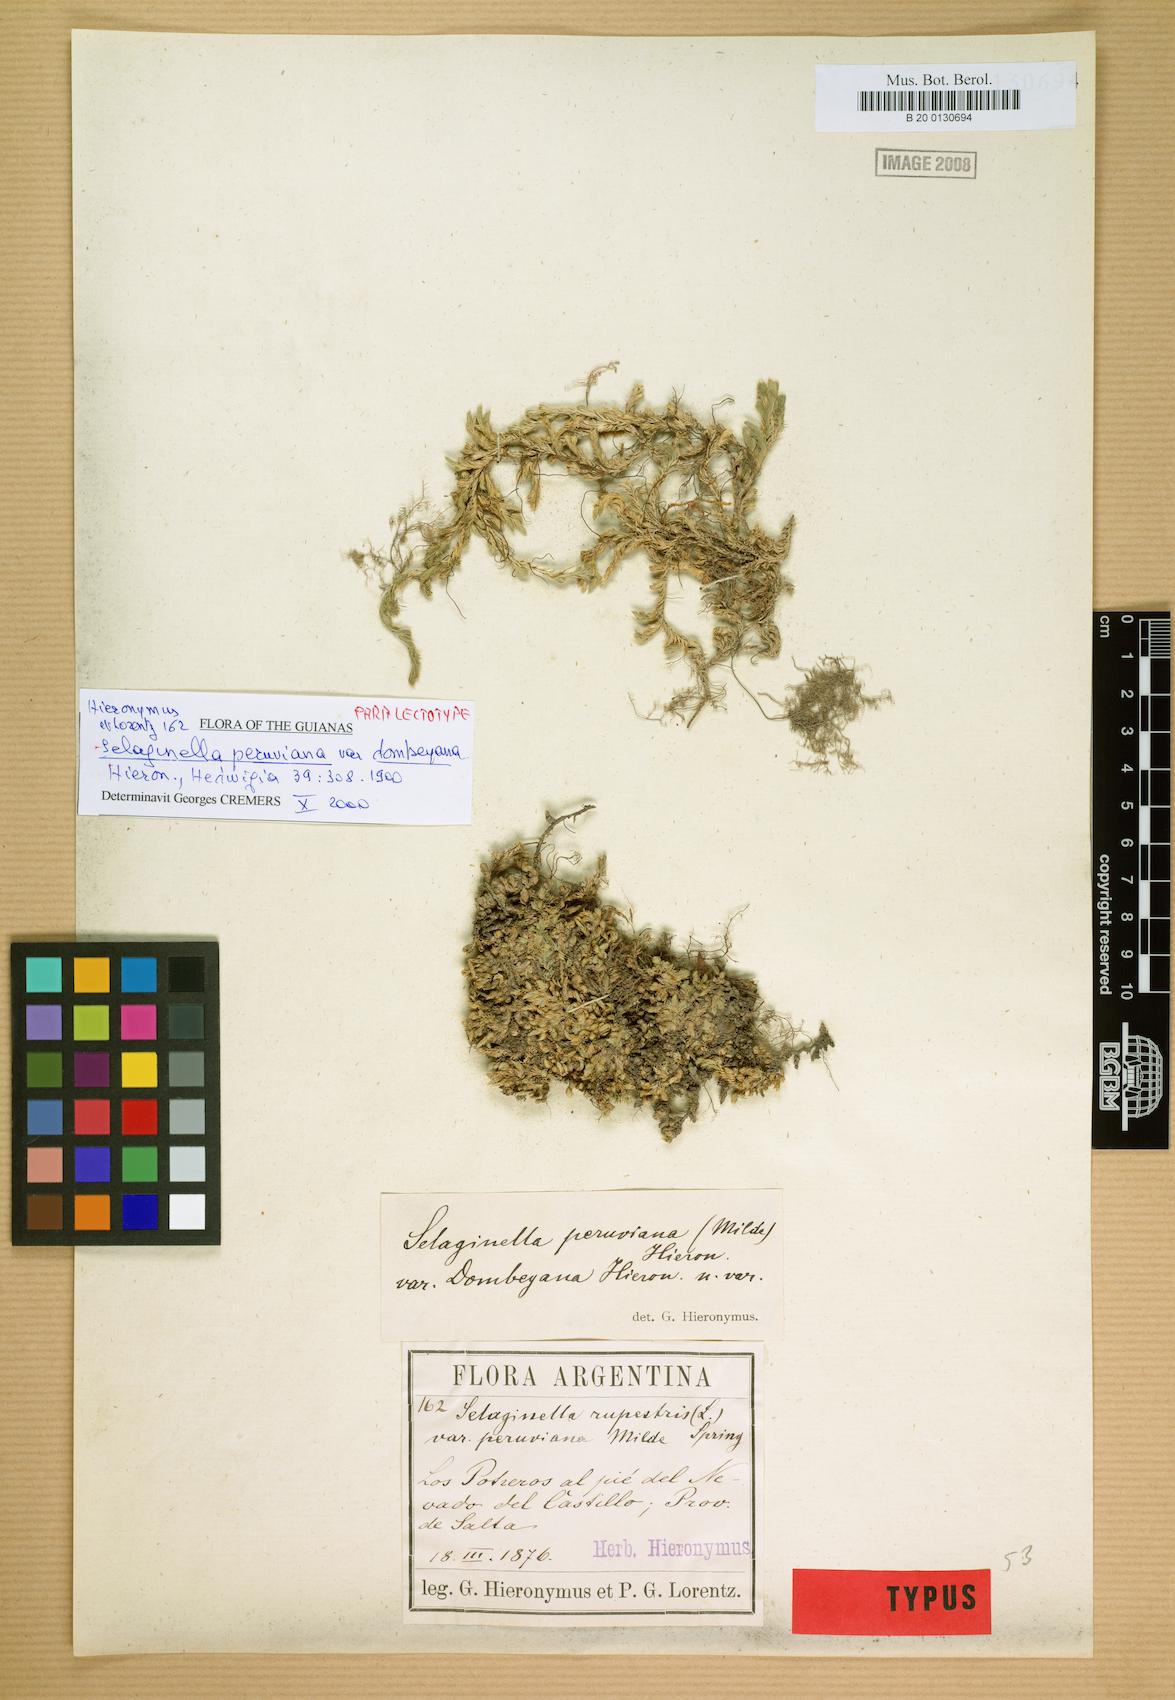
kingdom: Plantae
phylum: Tracheophyta
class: Lycopodiopsida
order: Selaginellales
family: Selaginellaceae
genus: Selaginella
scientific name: Selaginella peruviana
